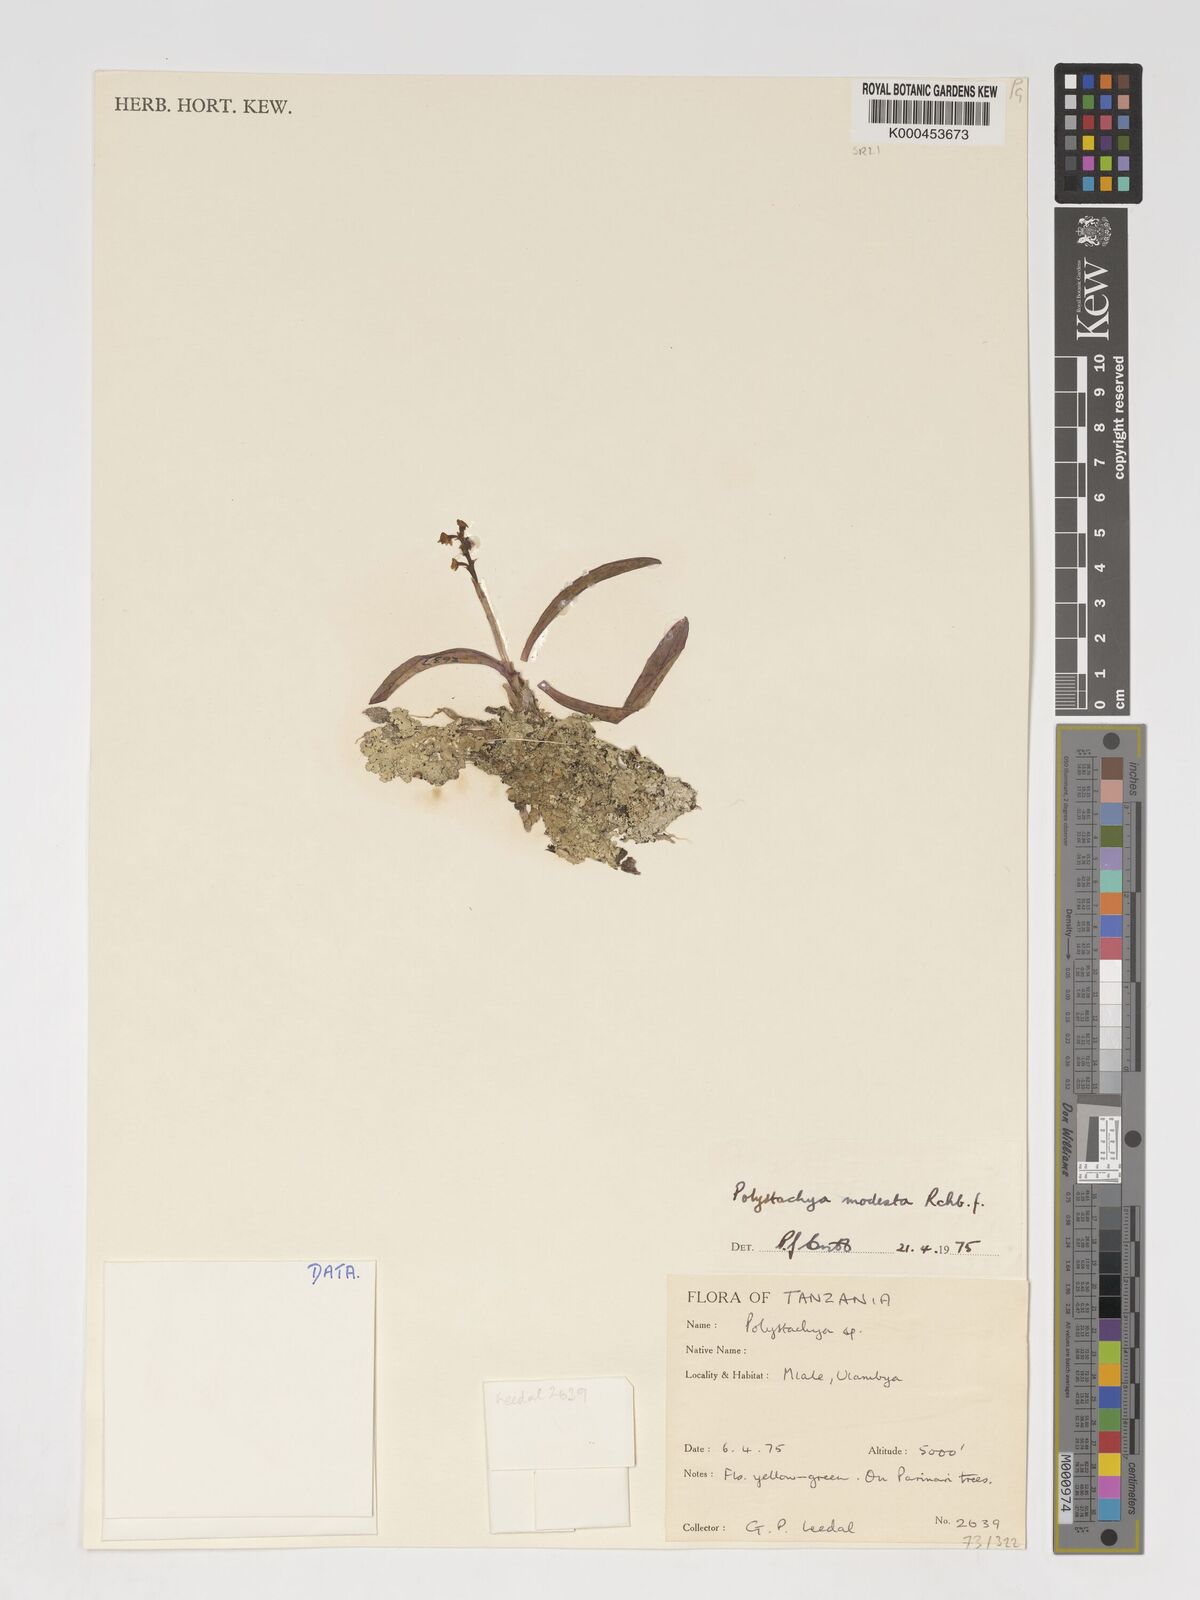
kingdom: Plantae
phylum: Tracheophyta
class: Liliopsida
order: Asparagales
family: Orchidaceae
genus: Polystachya
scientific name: Polystachya modesta
